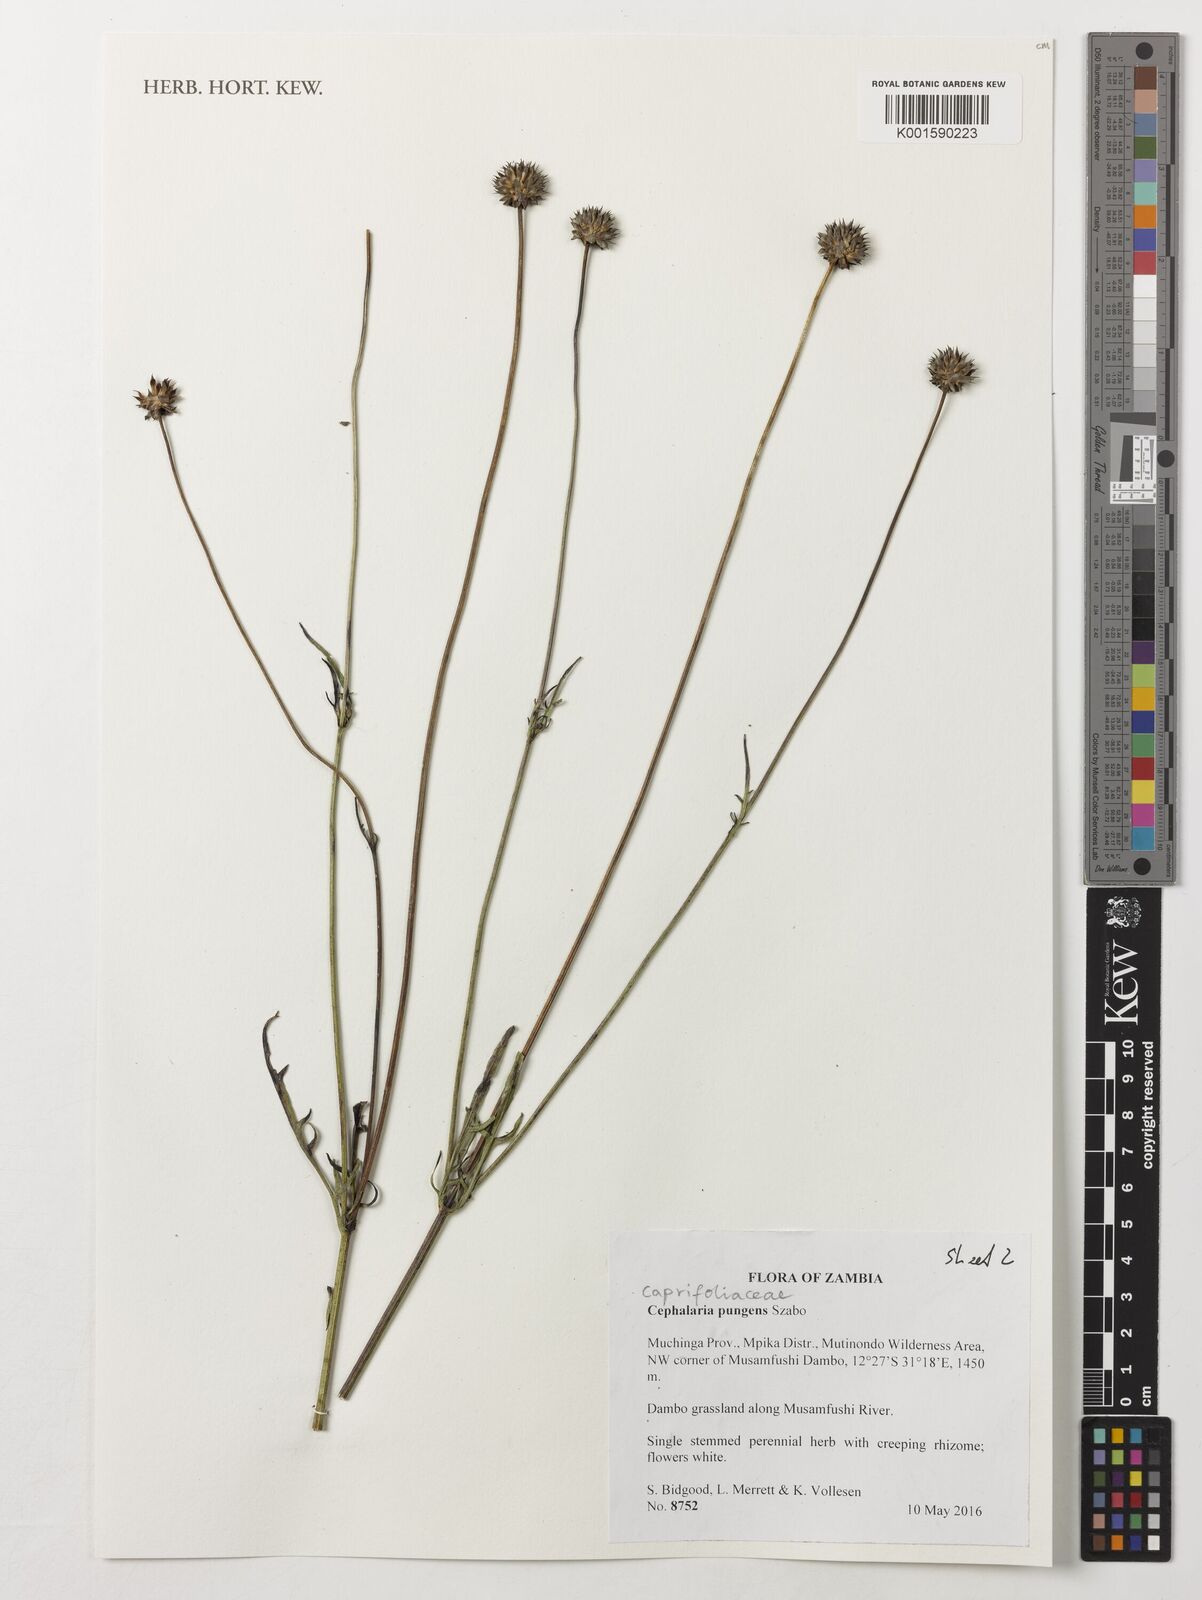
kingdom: Plantae
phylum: Tracheophyta
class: Magnoliopsida
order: Dipsacales
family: Caprifoliaceae
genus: Cephalaria
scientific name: Cephalaria pungens
